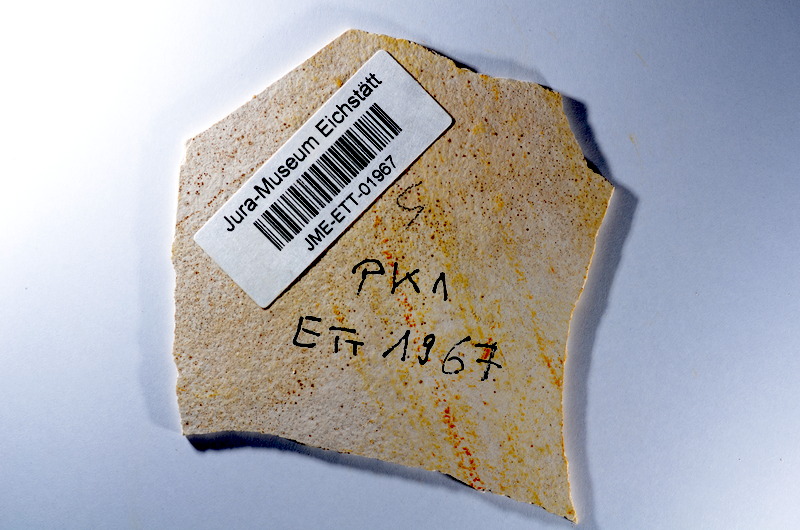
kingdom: Animalia
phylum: Chordata
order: Salmoniformes
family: Orthogonikleithridae
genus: Orthogonikleithrus
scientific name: Orthogonikleithrus hoelli
